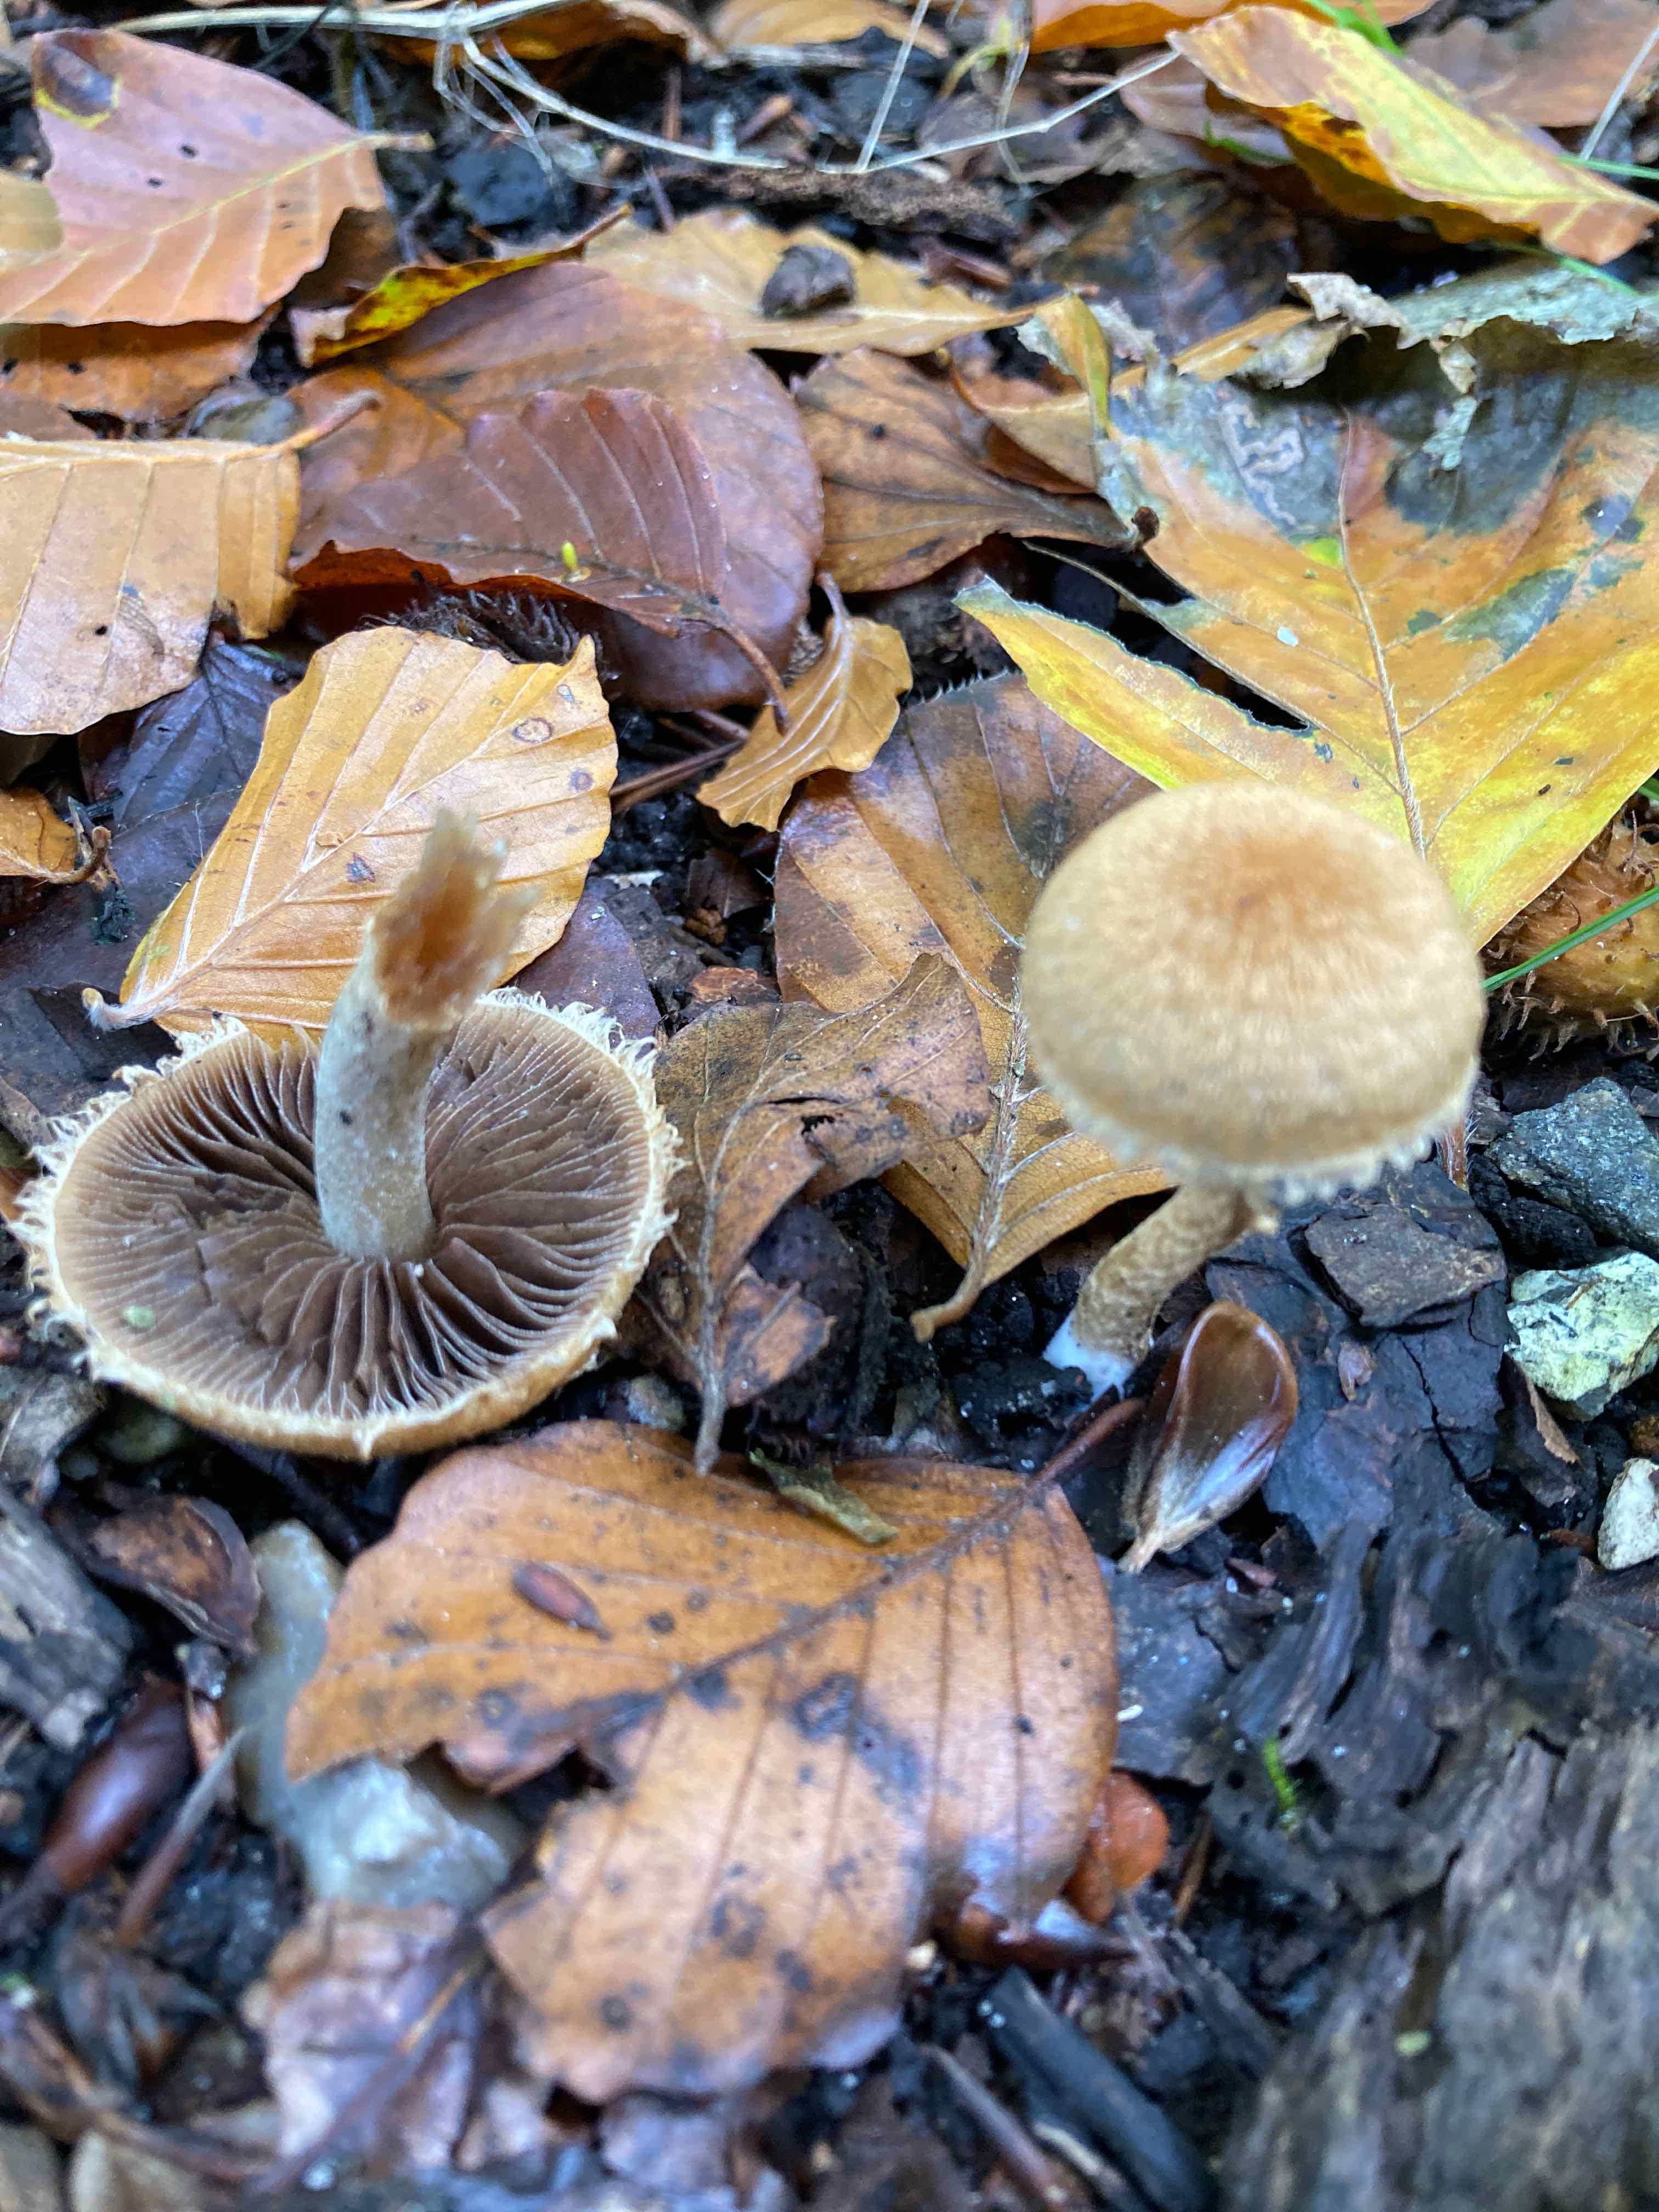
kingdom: Fungi
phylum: Basidiomycota
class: Agaricomycetes
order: Agaricales
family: Psathyrellaceae
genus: Lacrymaria
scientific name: Lacrymaria pyrotricha
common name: ildhåret mørkhat
